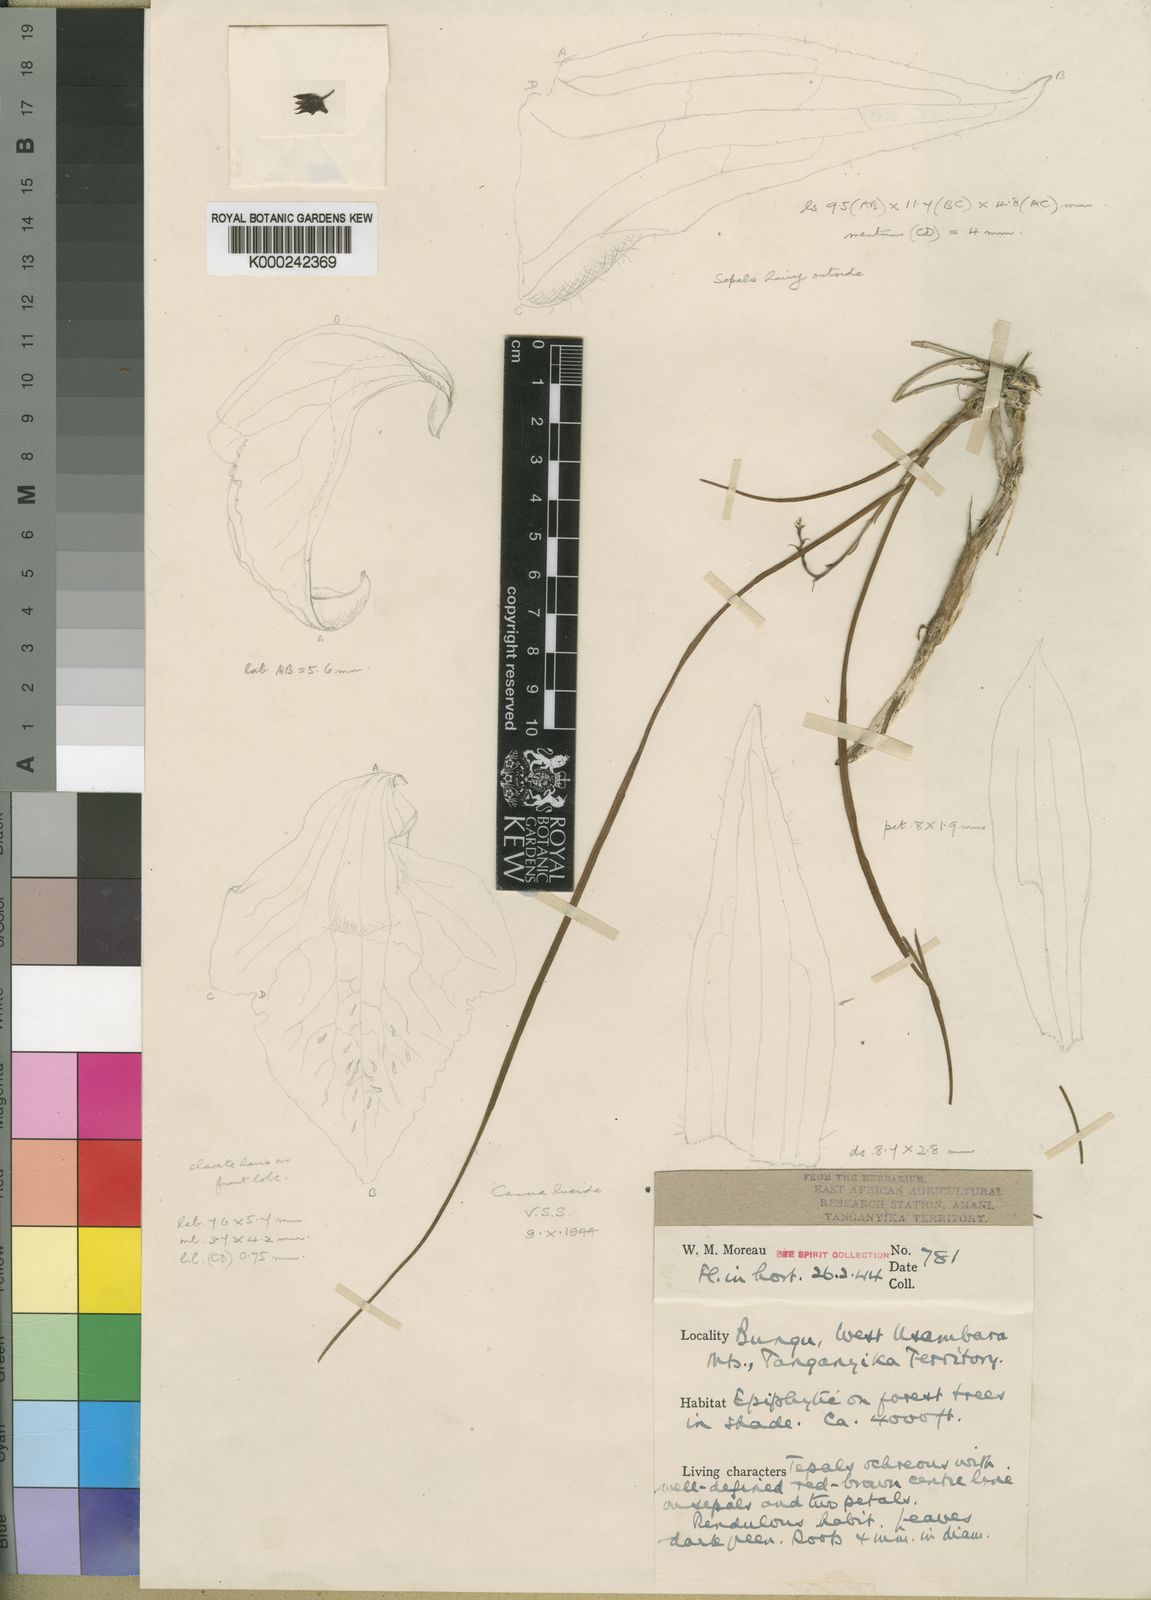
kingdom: Plantae
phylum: Tracheophyta
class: Liliopsida
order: Asparagales
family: Orchidaceae
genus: Polystachya
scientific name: Polystachya serpentina
